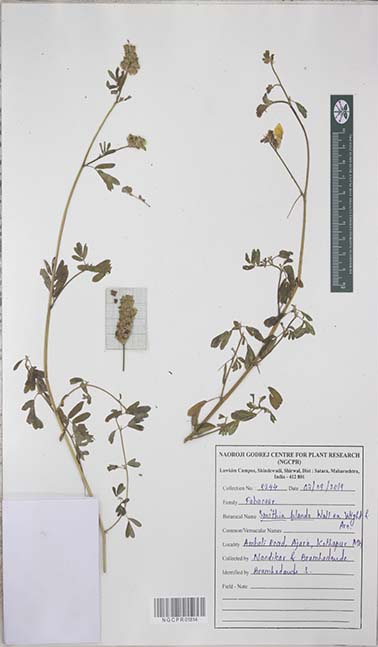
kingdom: Plantae
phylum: Tracheophyta
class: Magnoliopsida
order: Fabales
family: Fabaceae
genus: Smithia
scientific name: Smithia blanda
